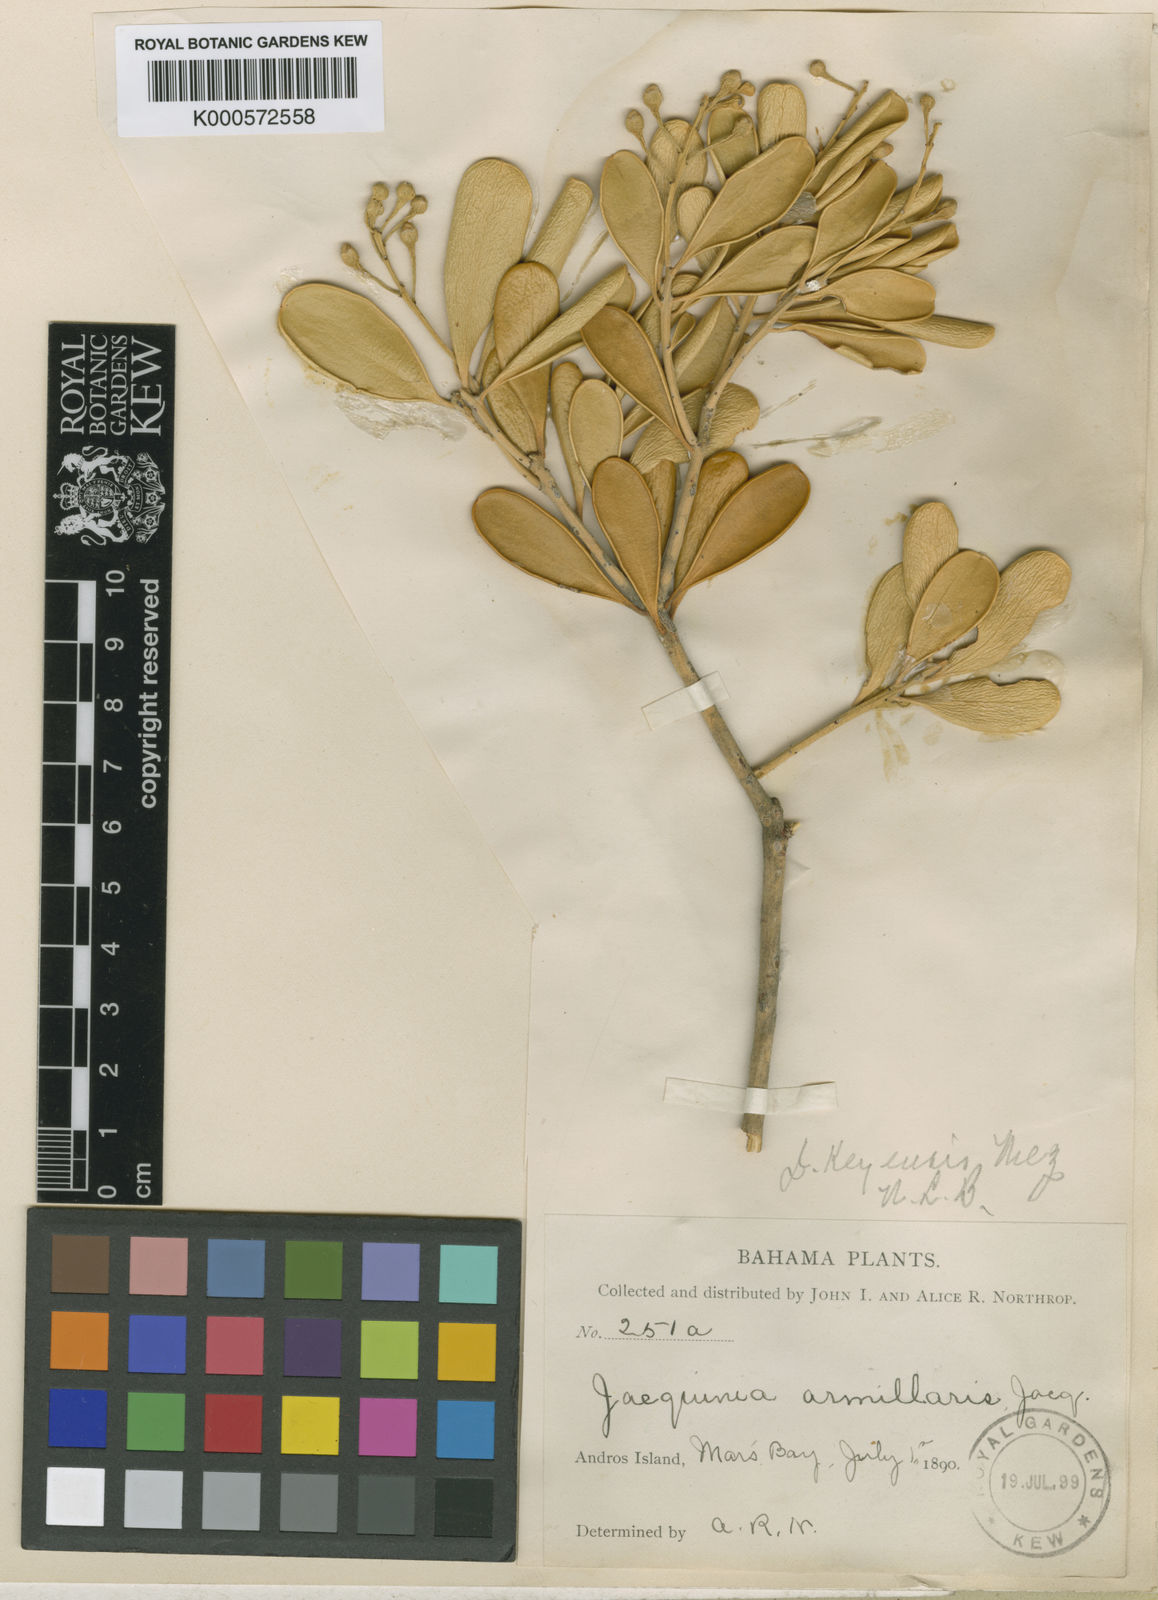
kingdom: Plantae
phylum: Tracheophyta
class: Magnoliopsida
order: Ericales
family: Primulaceae
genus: Jacquinia
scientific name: Jacquinia keyensis
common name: Joebush
